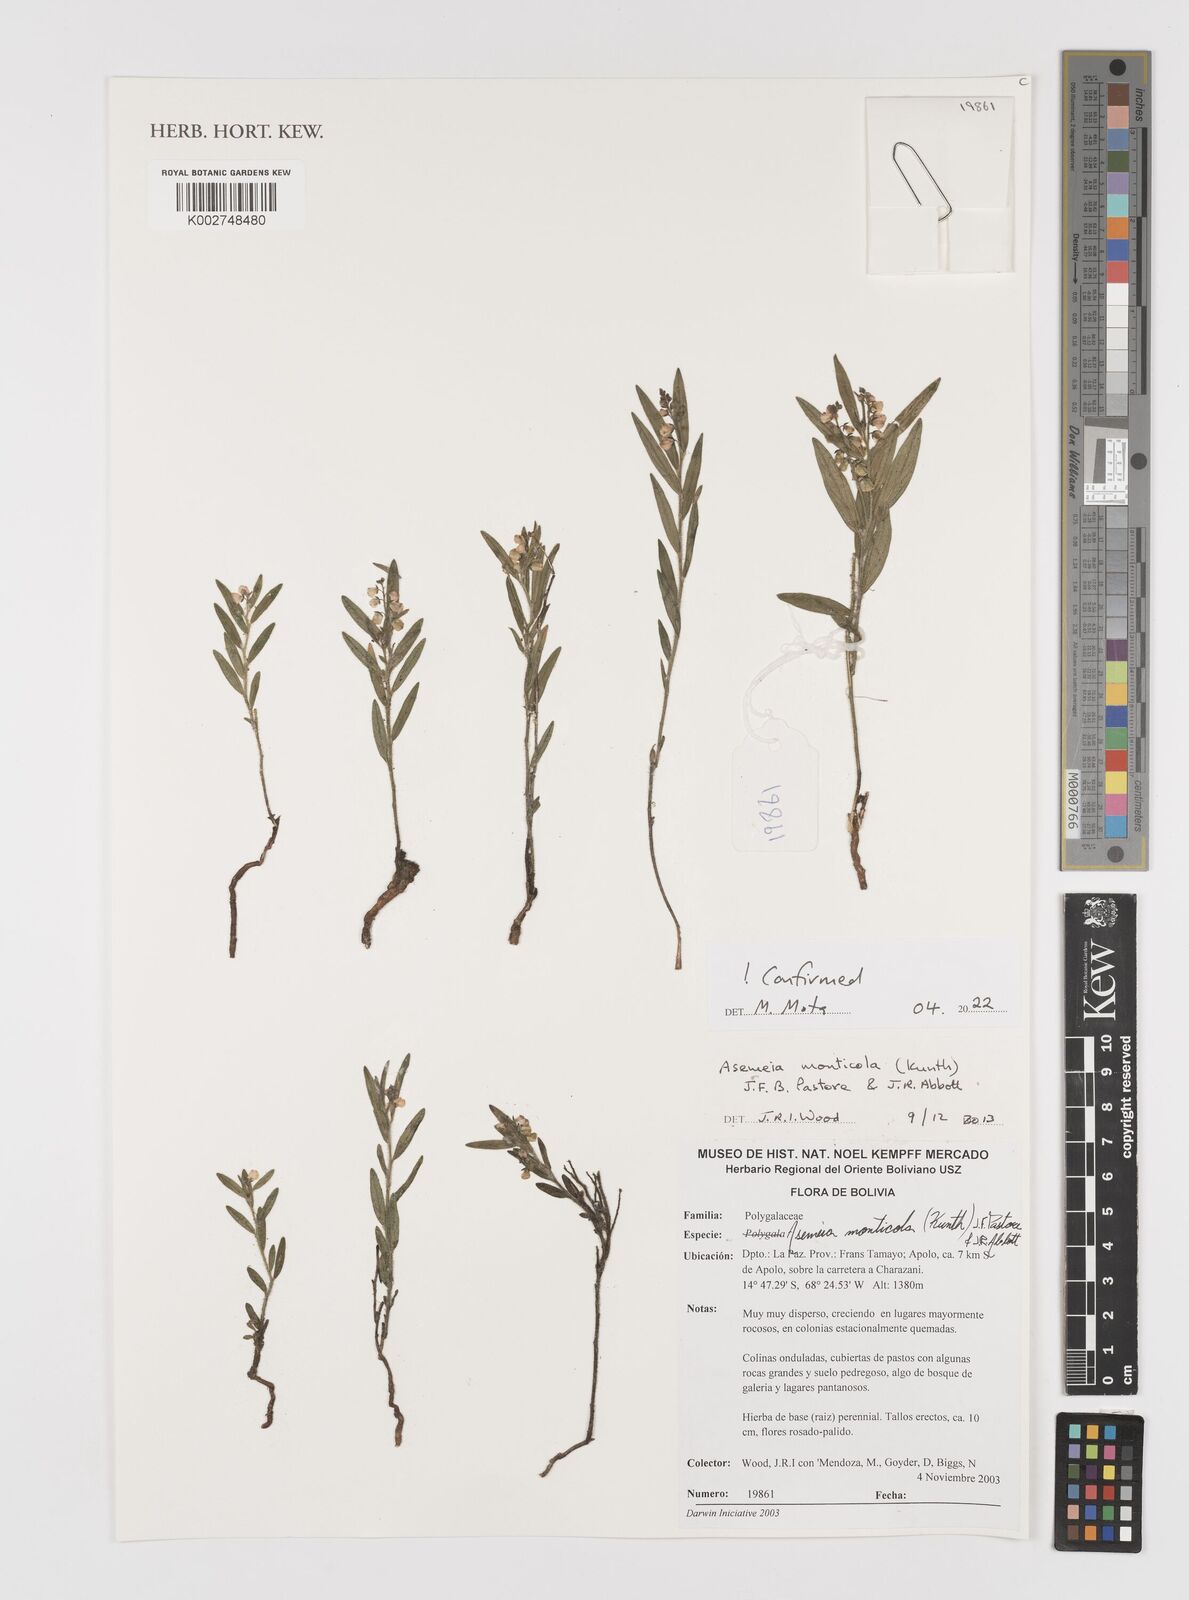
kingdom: Plantae
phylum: Tracheophyta
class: Magnoliopsida
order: Fabales
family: Polygalaceae
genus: Asemeia
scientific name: Asemeia monticola
